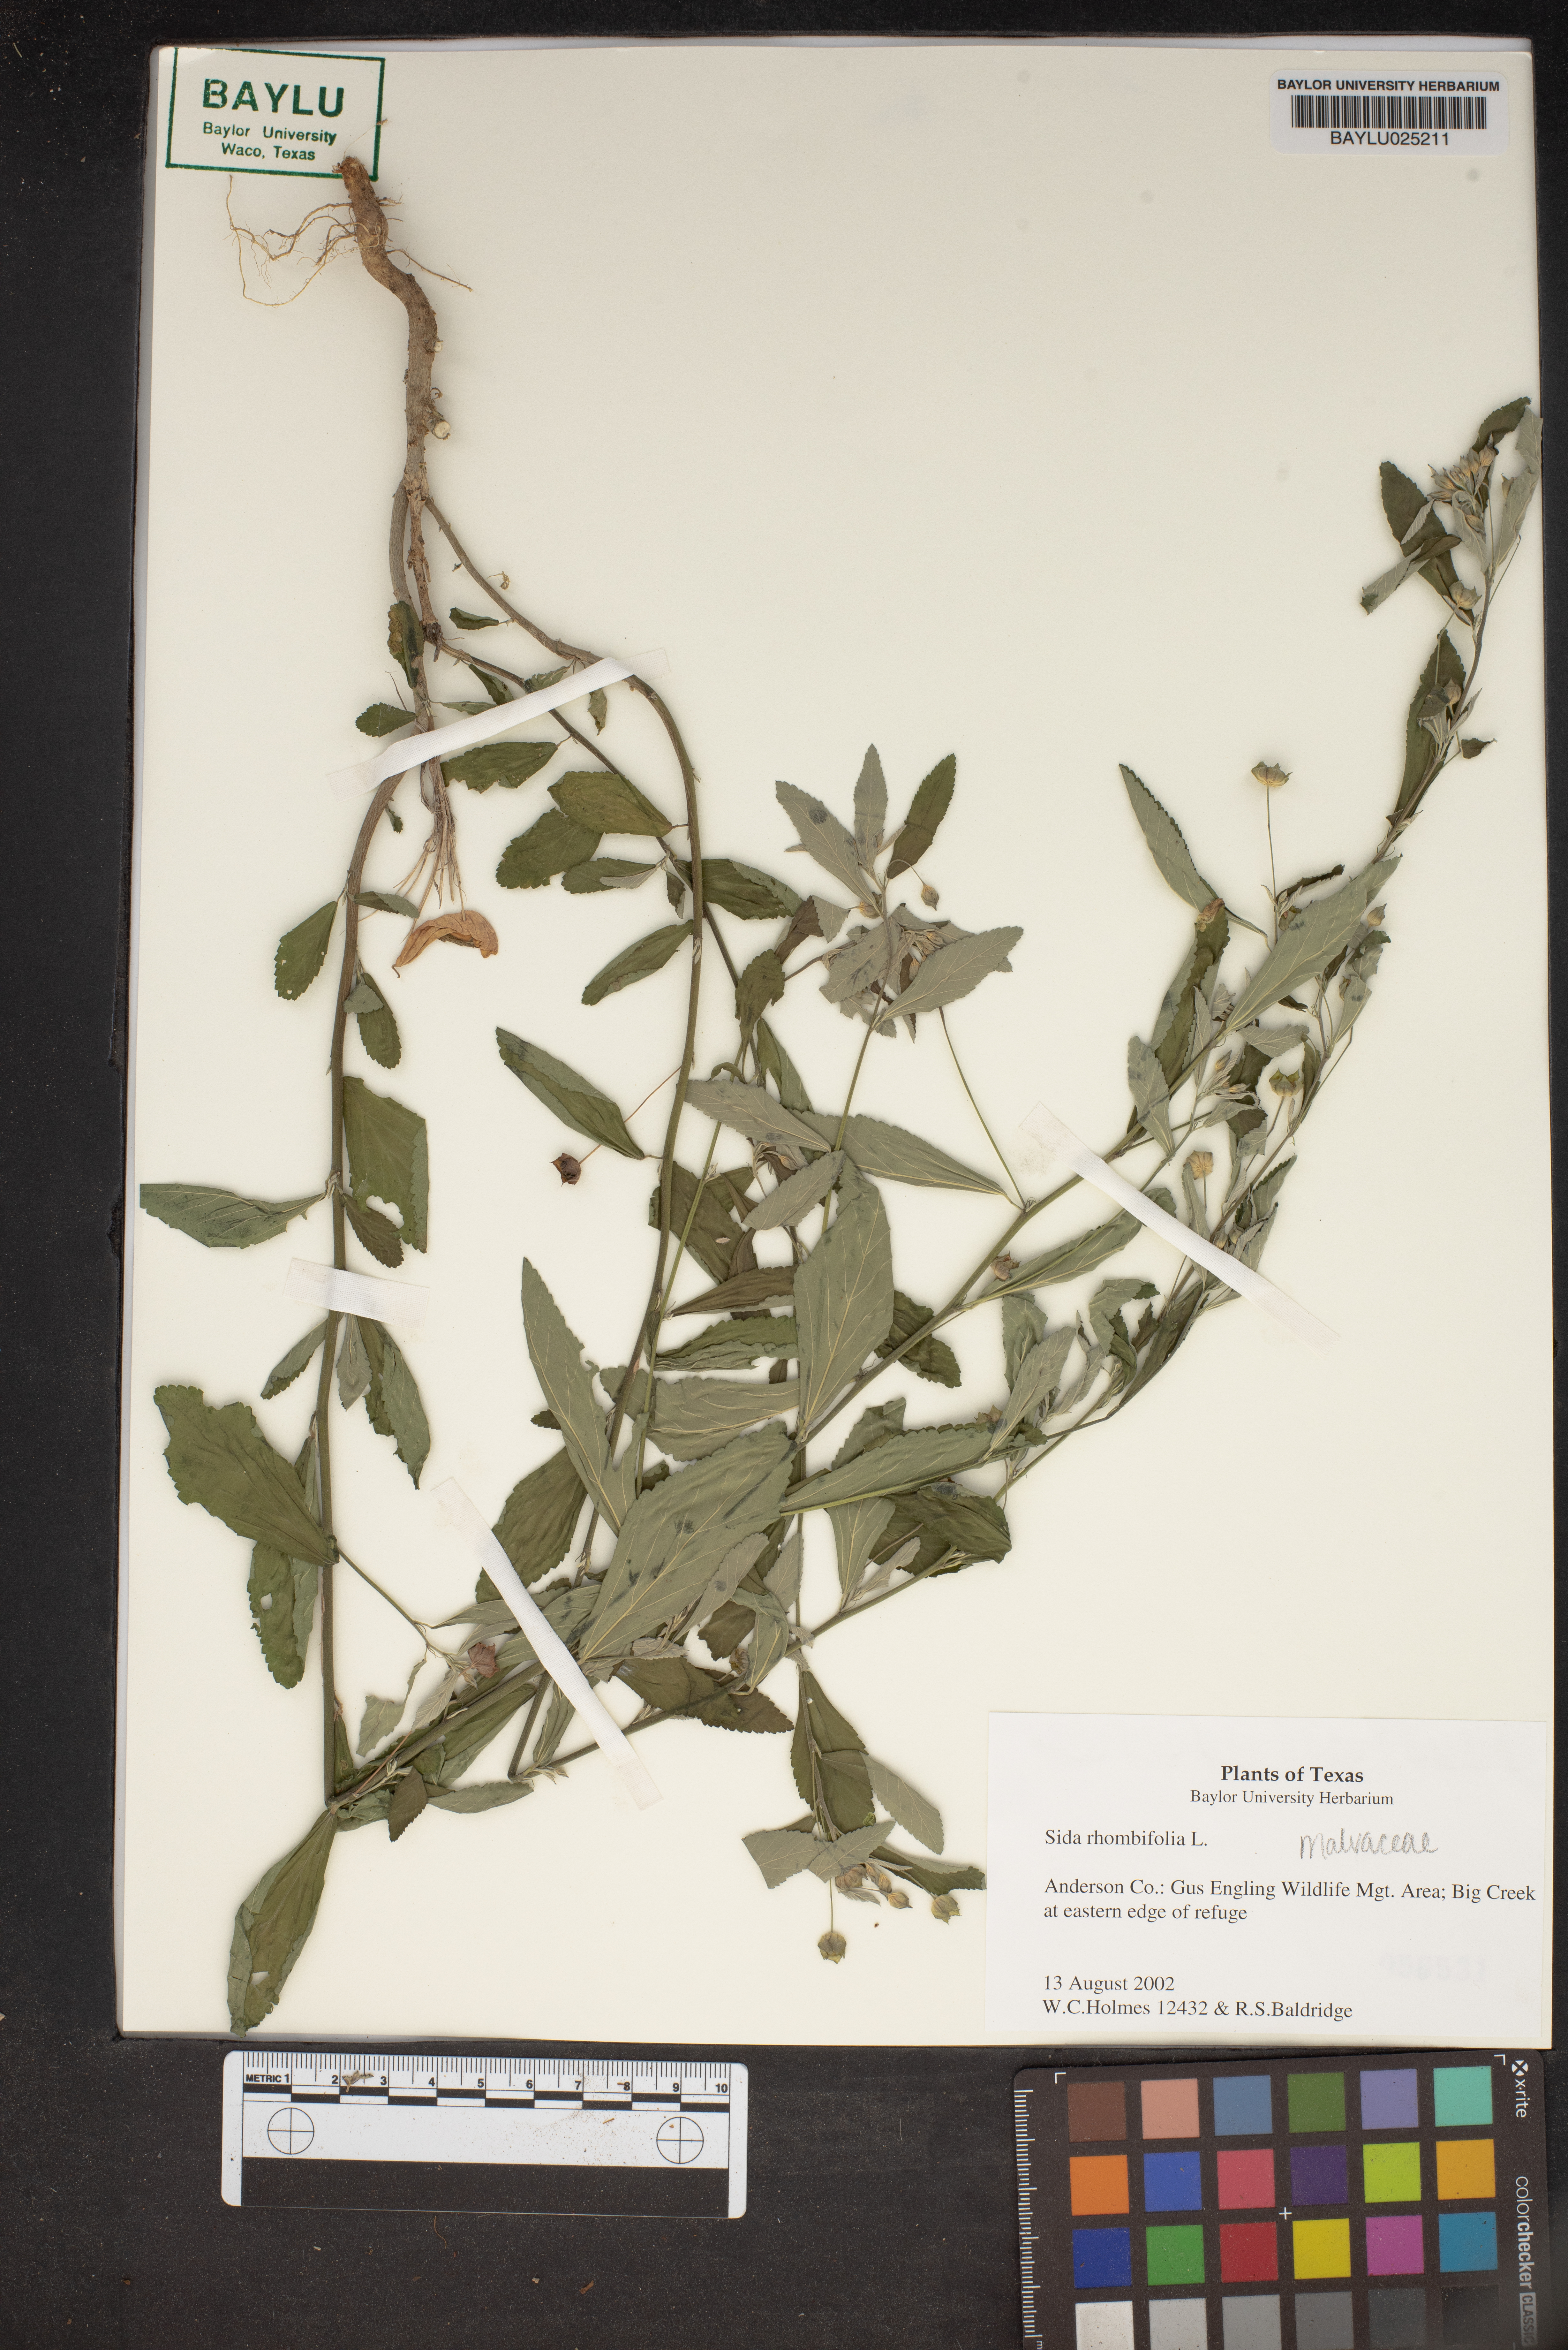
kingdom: Plantae
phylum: Tracheophyta
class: Magnoliopsida
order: Malvales
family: Malvaceae
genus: Sida
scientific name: Sida rhombifolia
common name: Queensland-hemp
